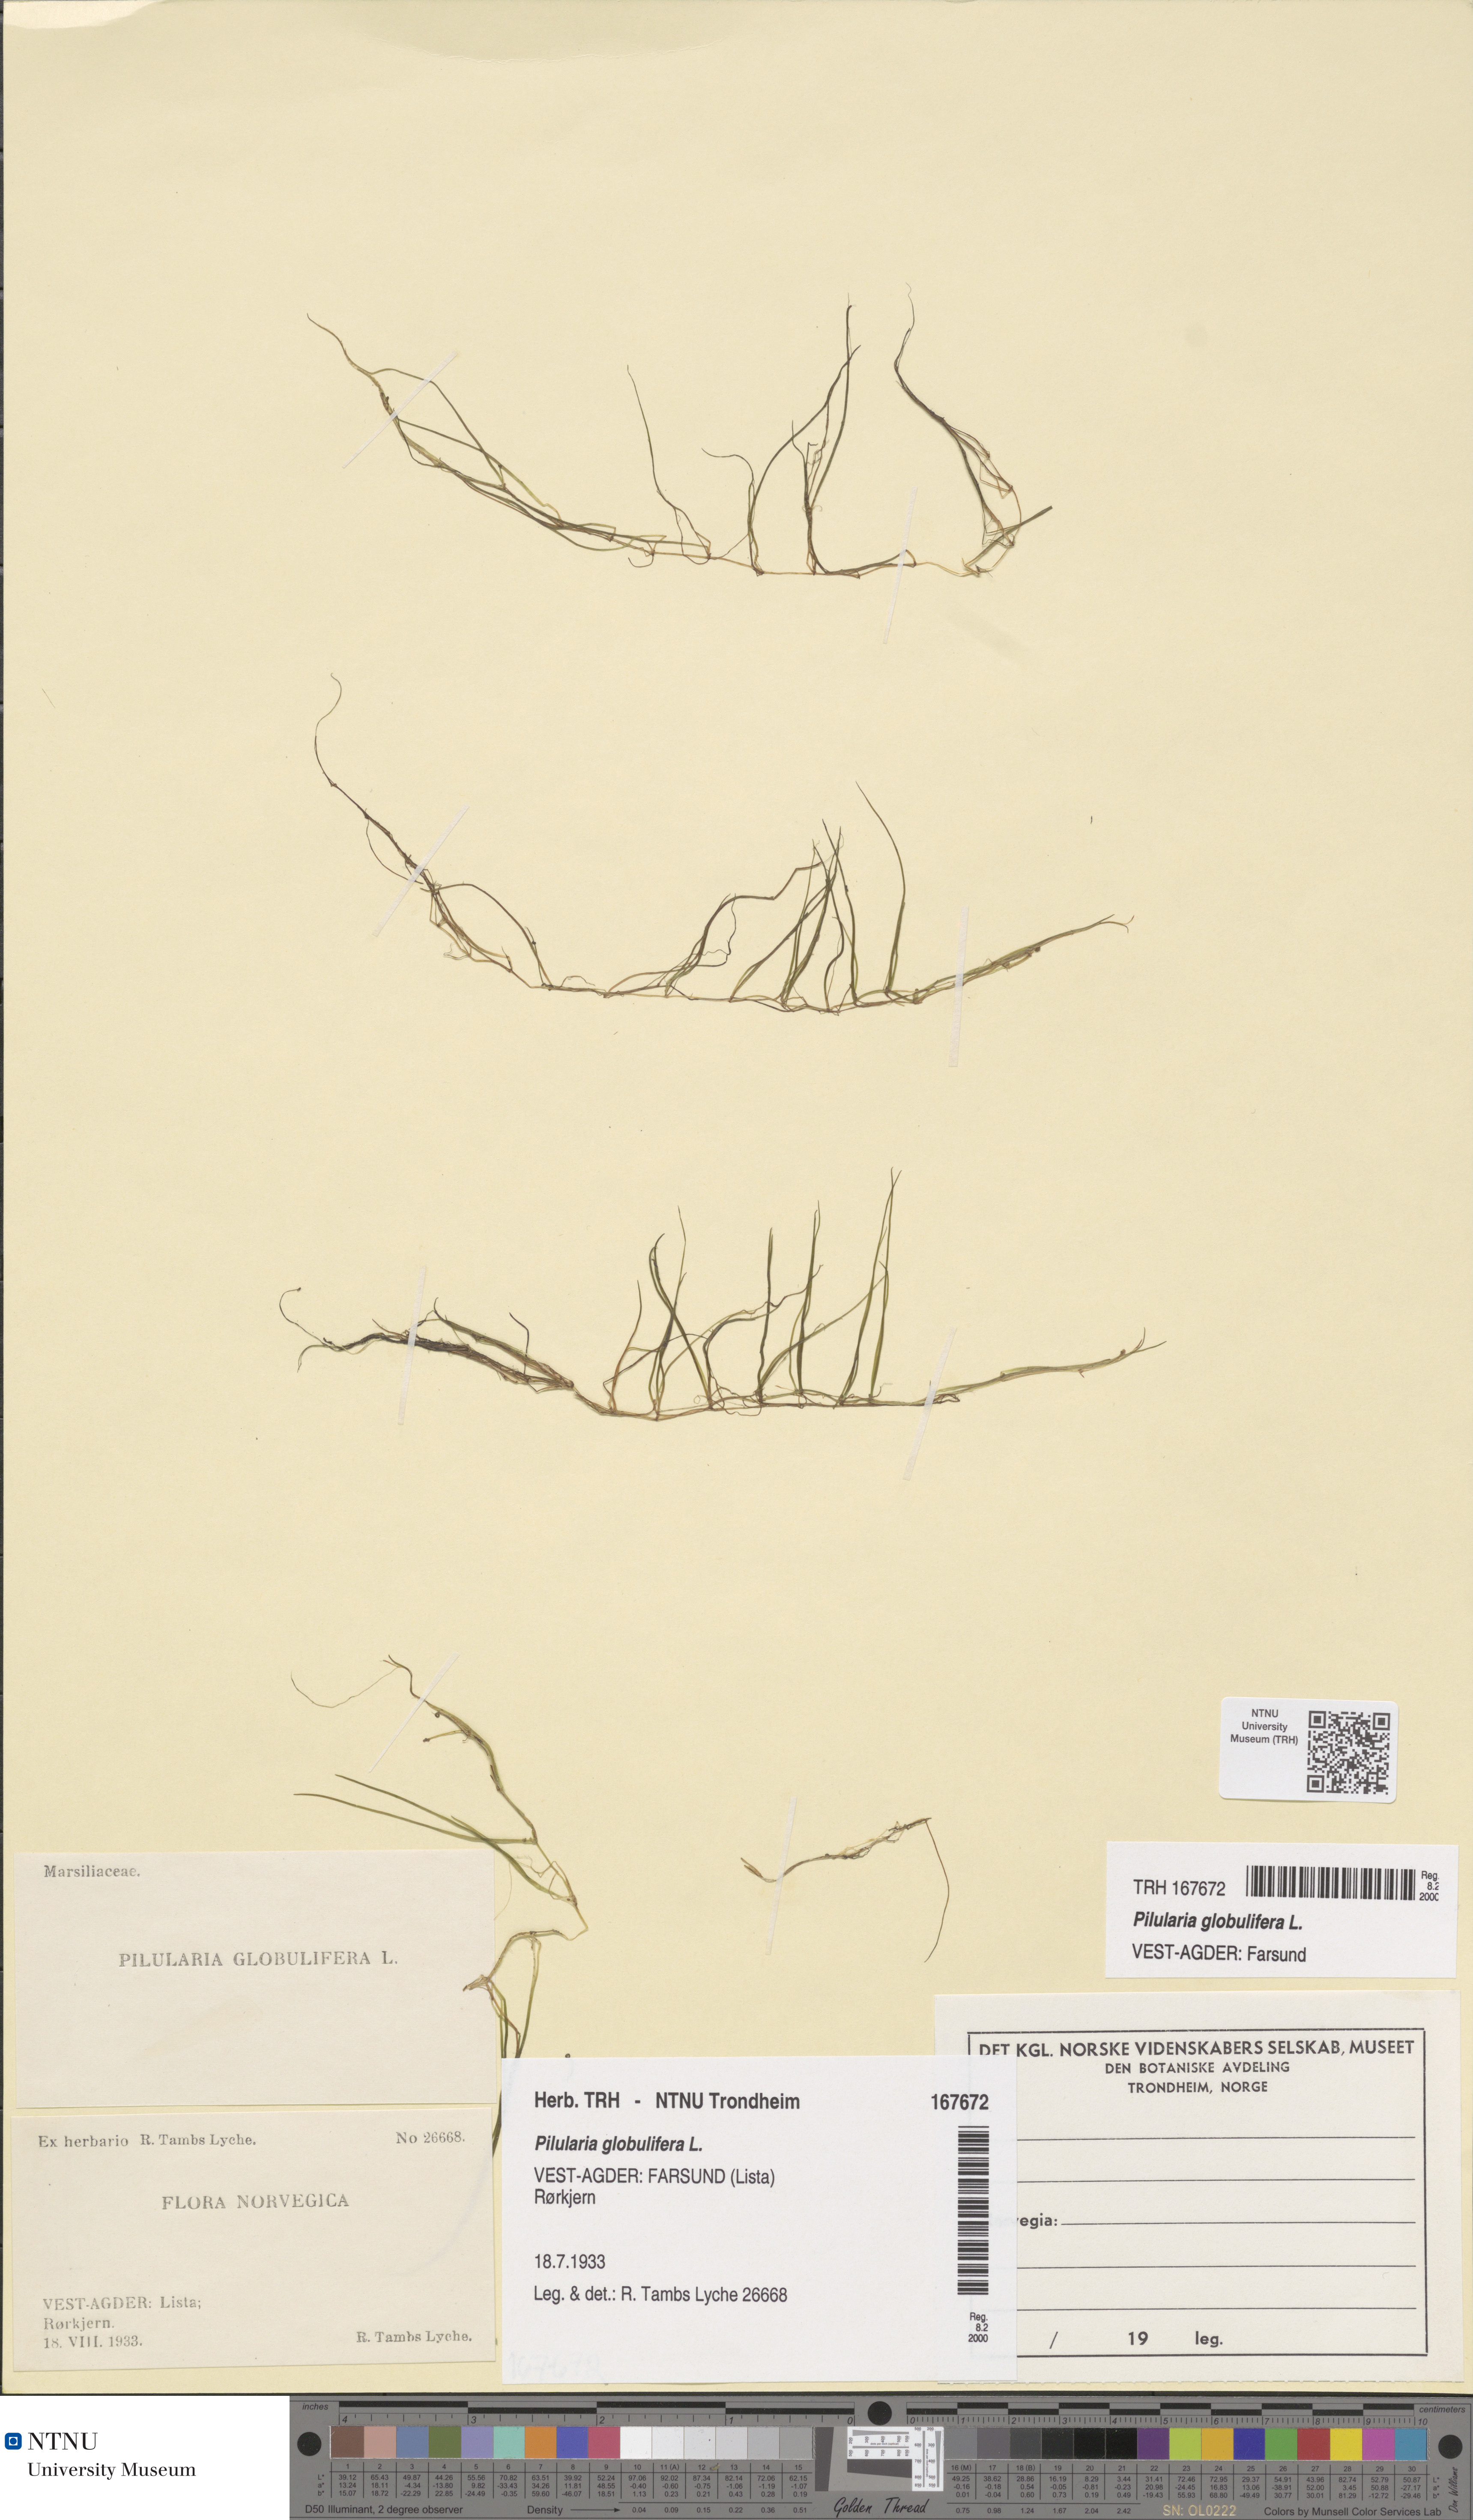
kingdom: Plantae
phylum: Tracheophyta
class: Polypodiopsida
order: Salviniales
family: Marsileaceae
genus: Pilularia
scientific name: Pilularia globulifera
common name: Pillwort
